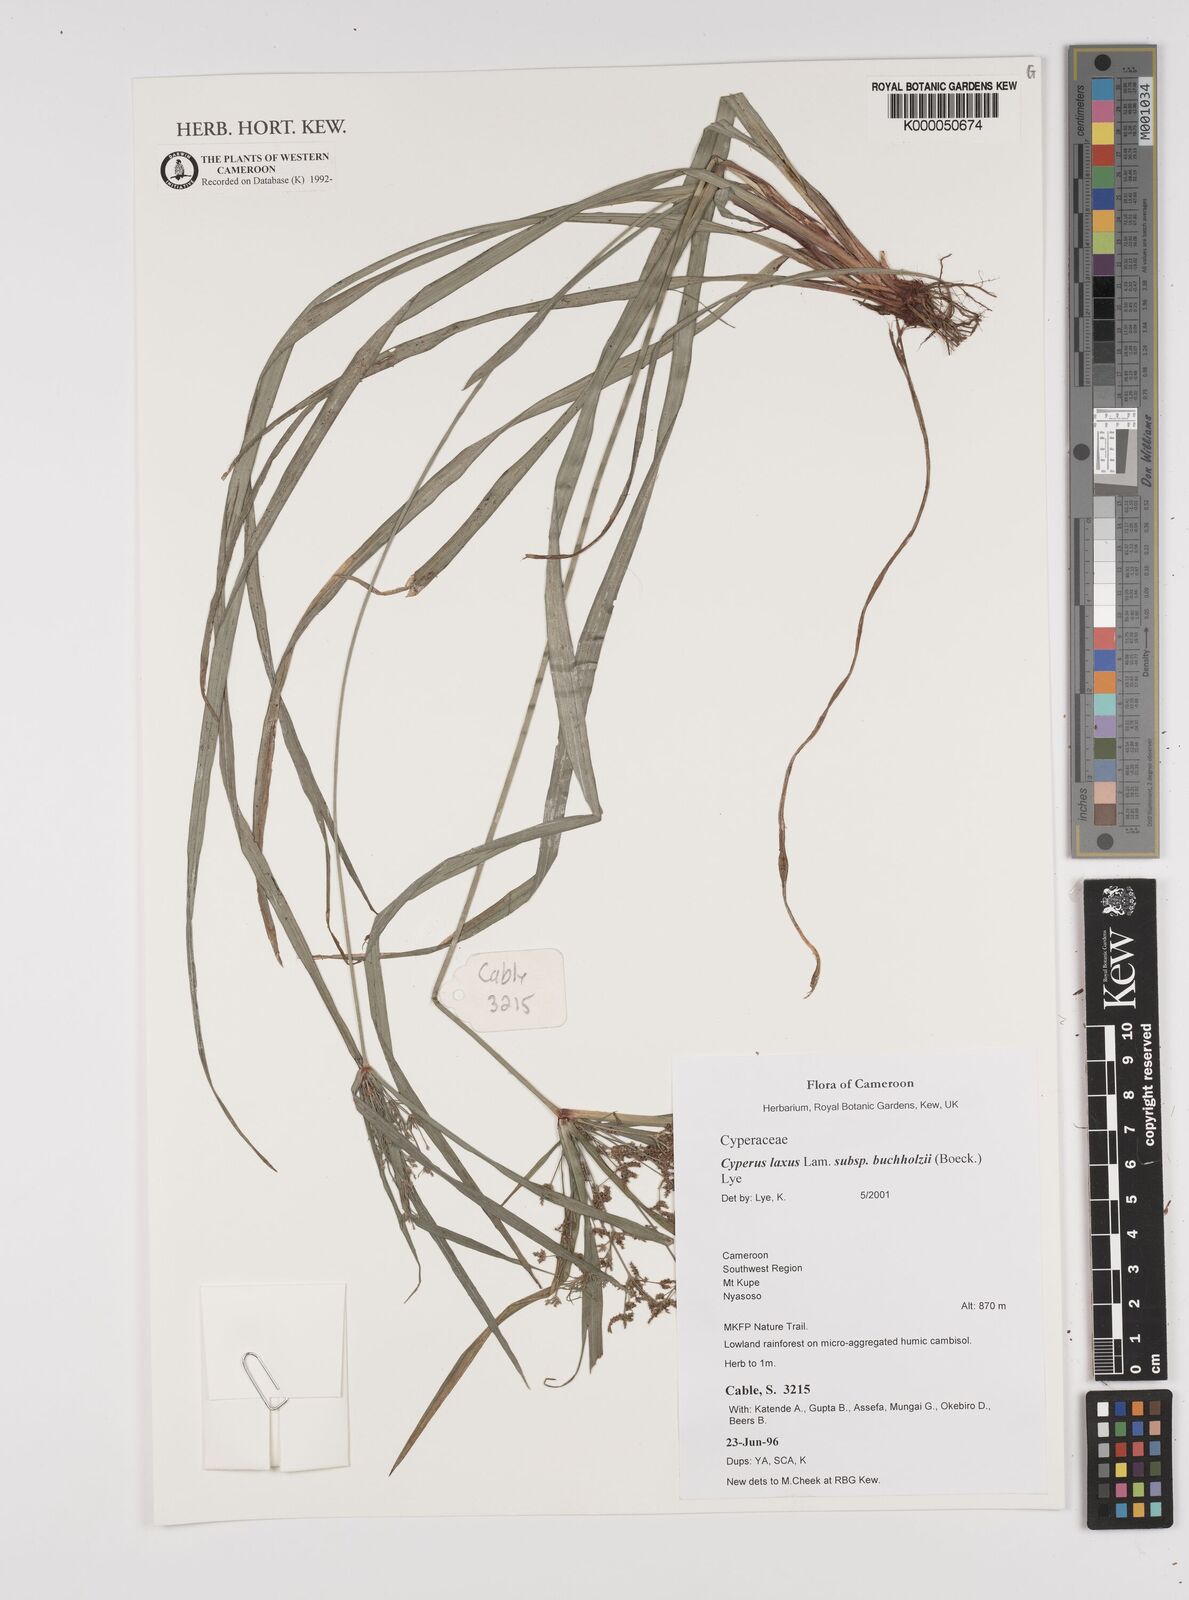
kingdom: Plantae
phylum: Tracheophyta
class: Liliopsida
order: Poales
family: Cyperaceae
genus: Cyperus
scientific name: Cyperus buchholzii
